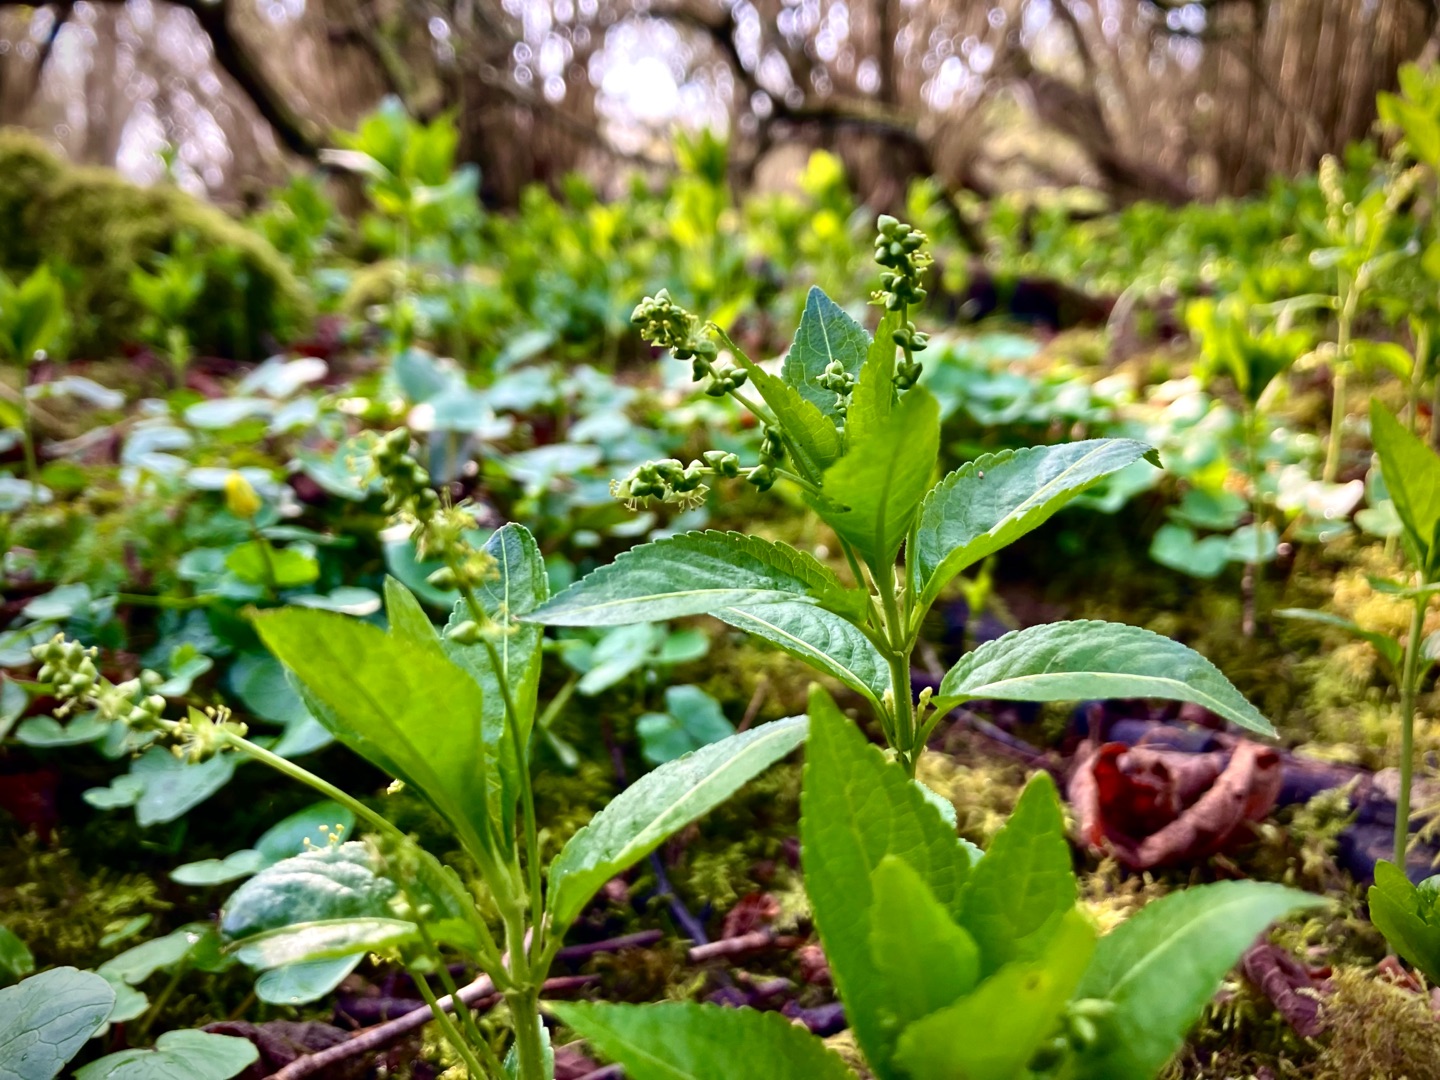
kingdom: Plantae
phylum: Tracheophyta
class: Magnoliopsida
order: Malpighiales
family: Euphorbiaceae
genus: Mercurialis
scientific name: Mercurialis perennis
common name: Almindelig bingelurt
